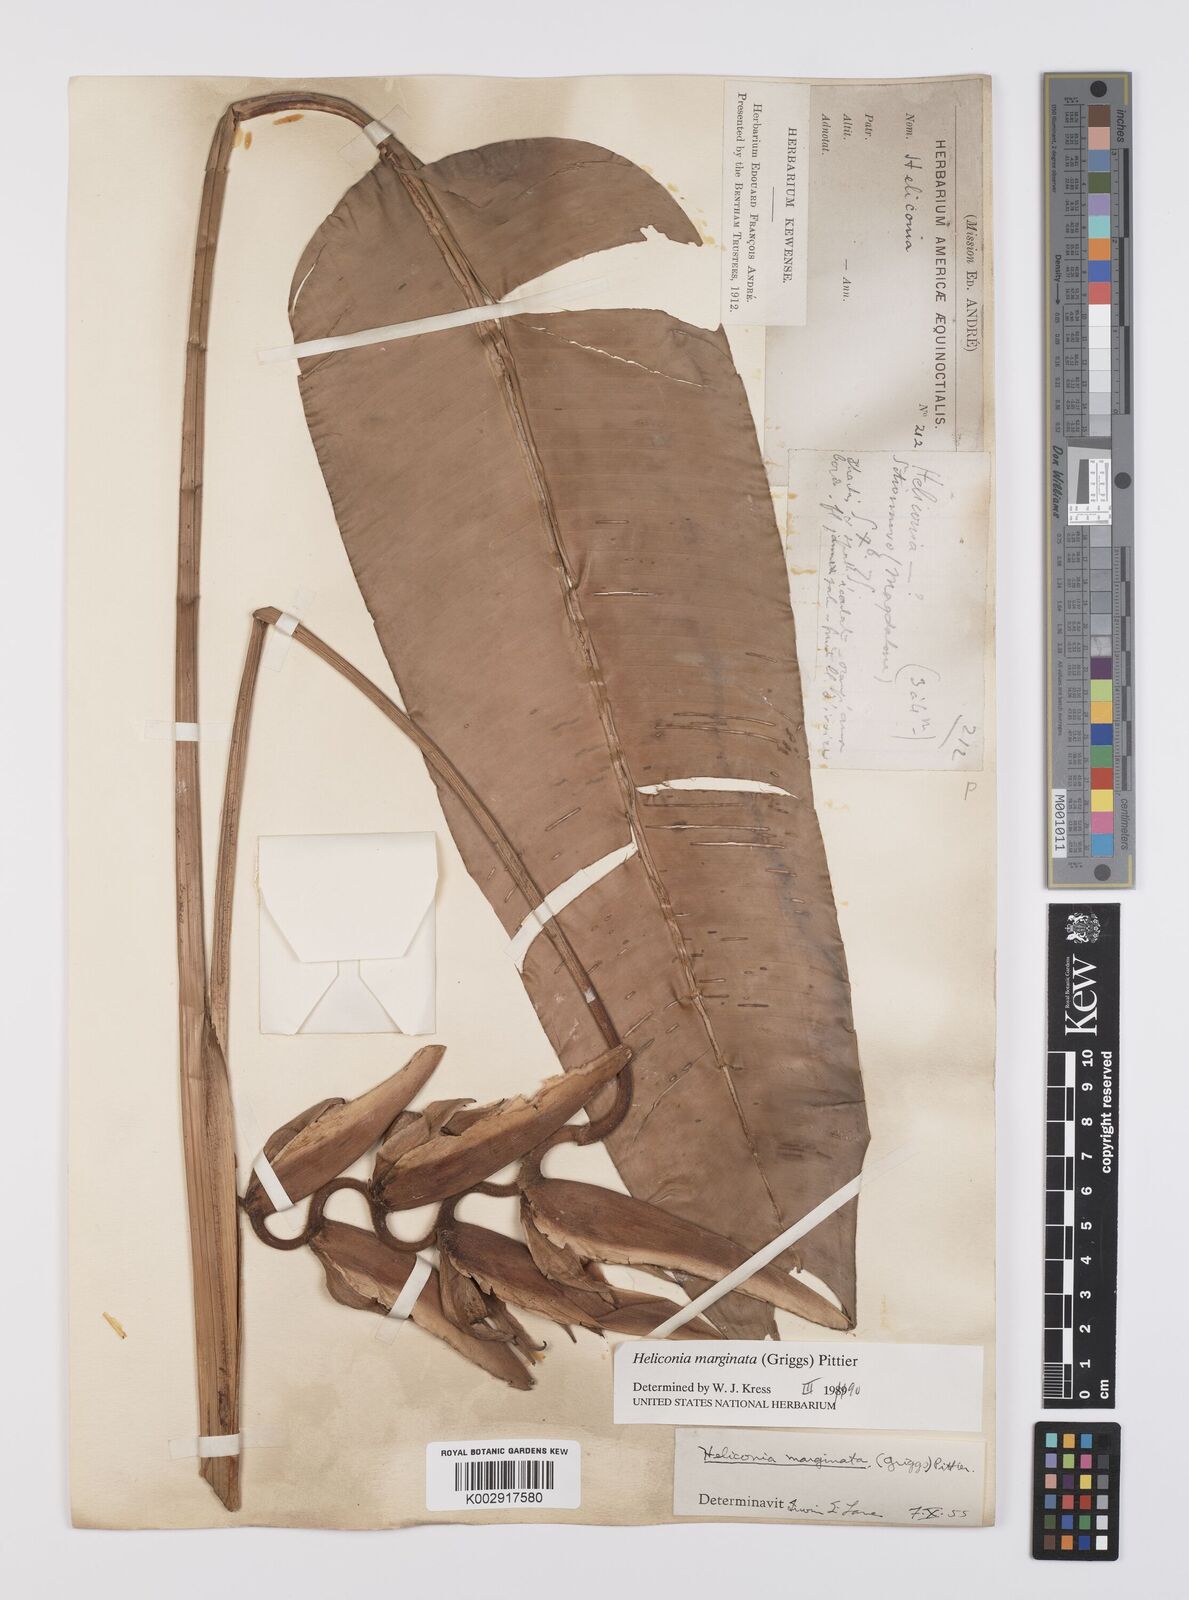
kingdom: Plantae
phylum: Tracheophyta
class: Liliopsida
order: Zingiberales
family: Heliconiaceae
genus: Heliconia
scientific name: Heliconia marginata
